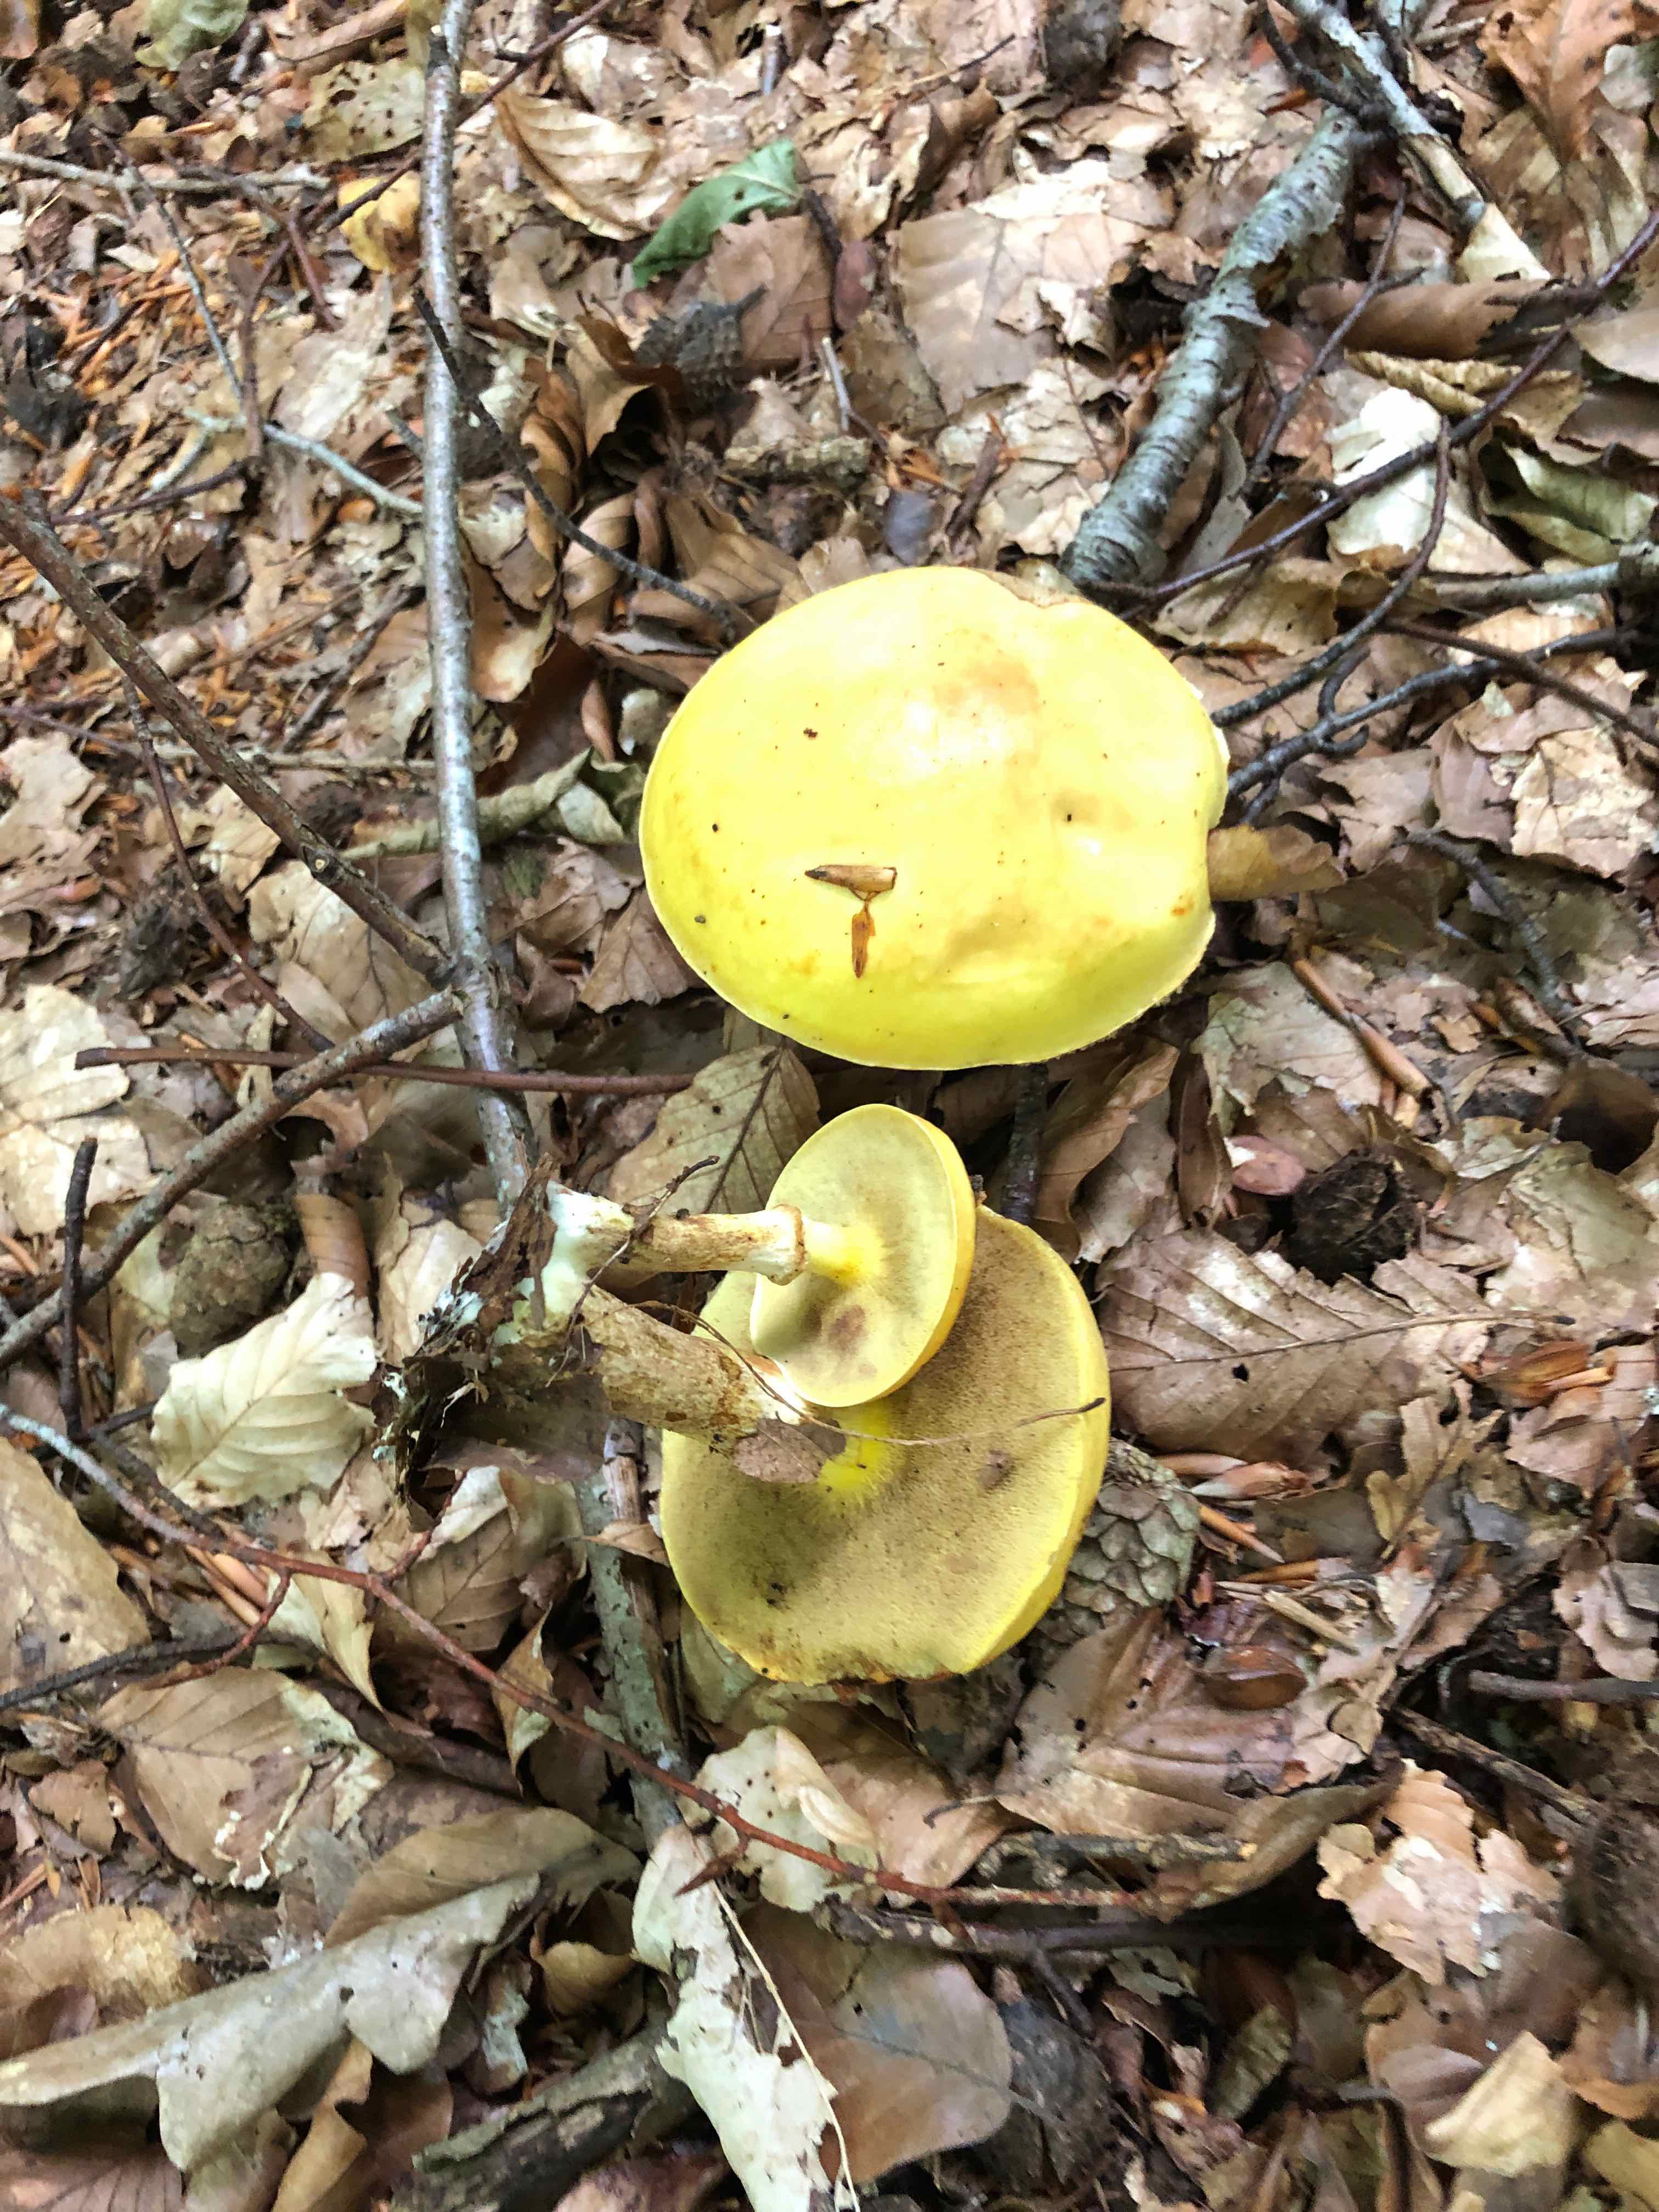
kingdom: Fungi
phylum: Basidiomycota
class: Agaricomycetes
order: Boletales
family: Suillaceae
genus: Suillus
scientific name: Suillus grevillei
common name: lærke-slimrørhat
